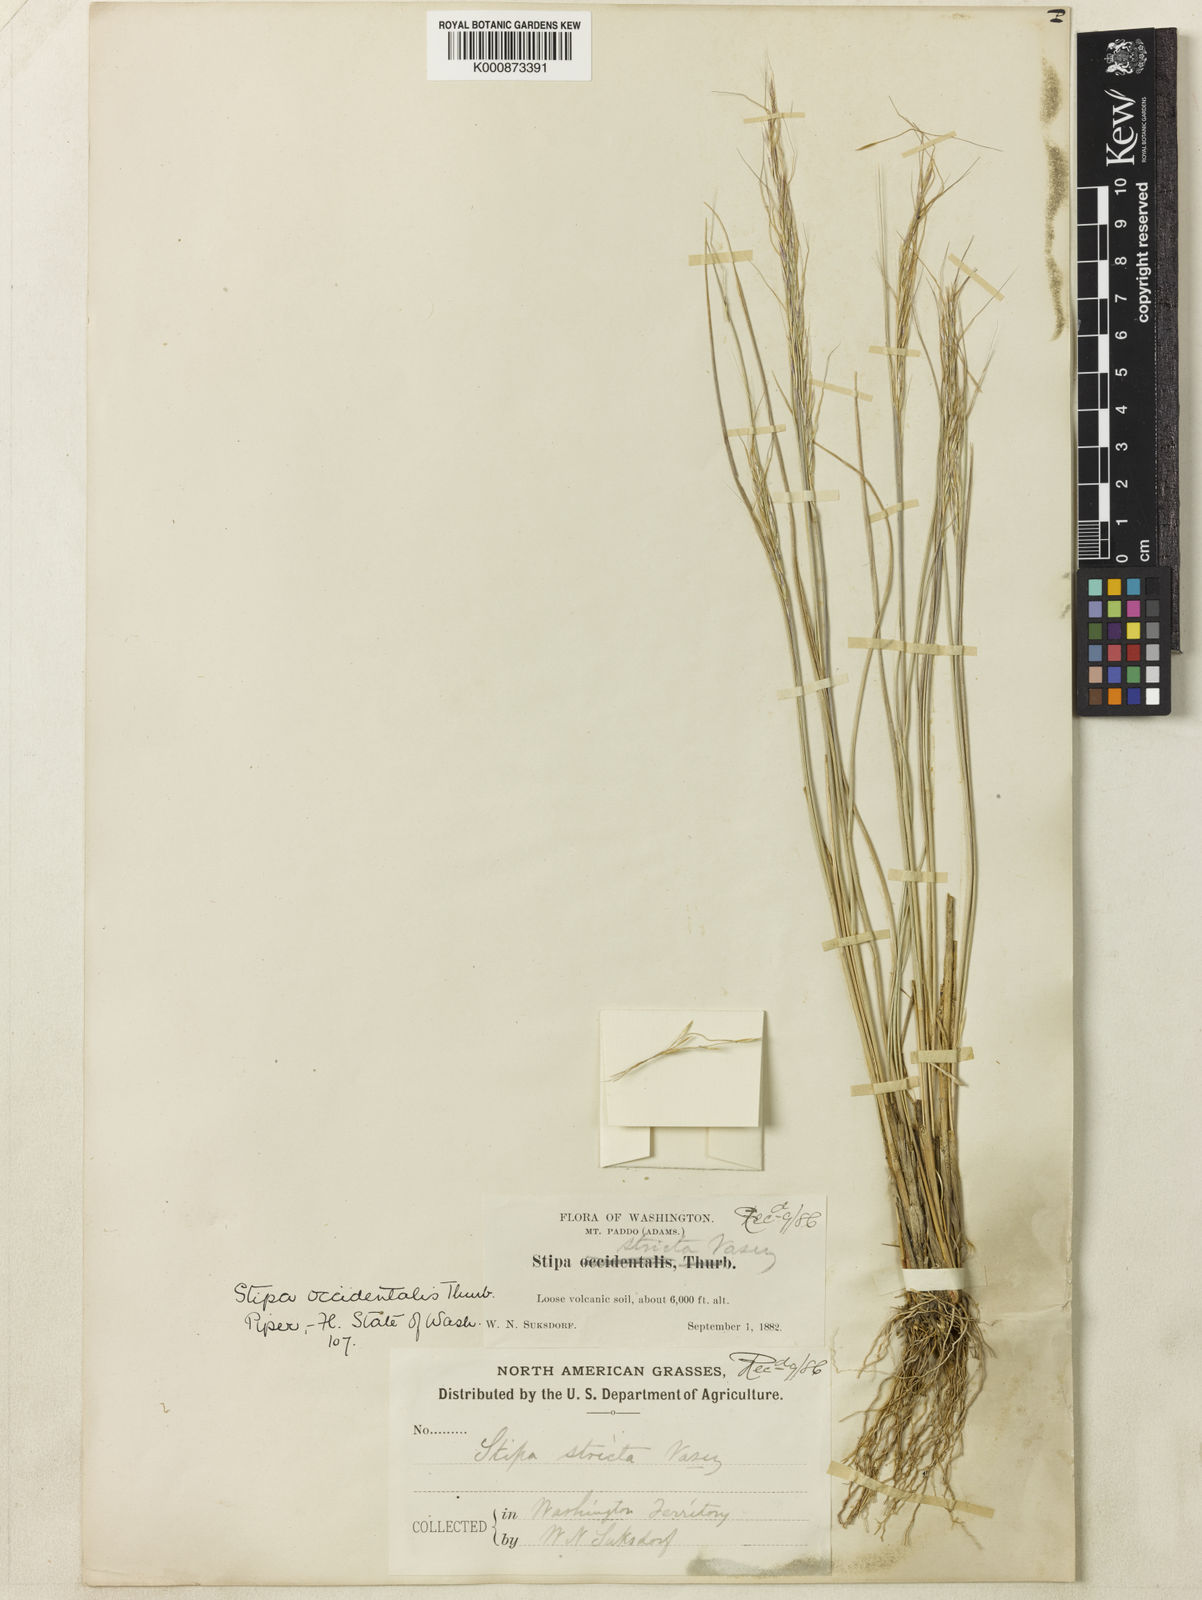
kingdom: Plantae
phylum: Tracheophyta
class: Liliopsida
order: Poales
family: Poaceae
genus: Eriocoma
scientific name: Eriocoma thurberiana
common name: Thurber's needlegrass
